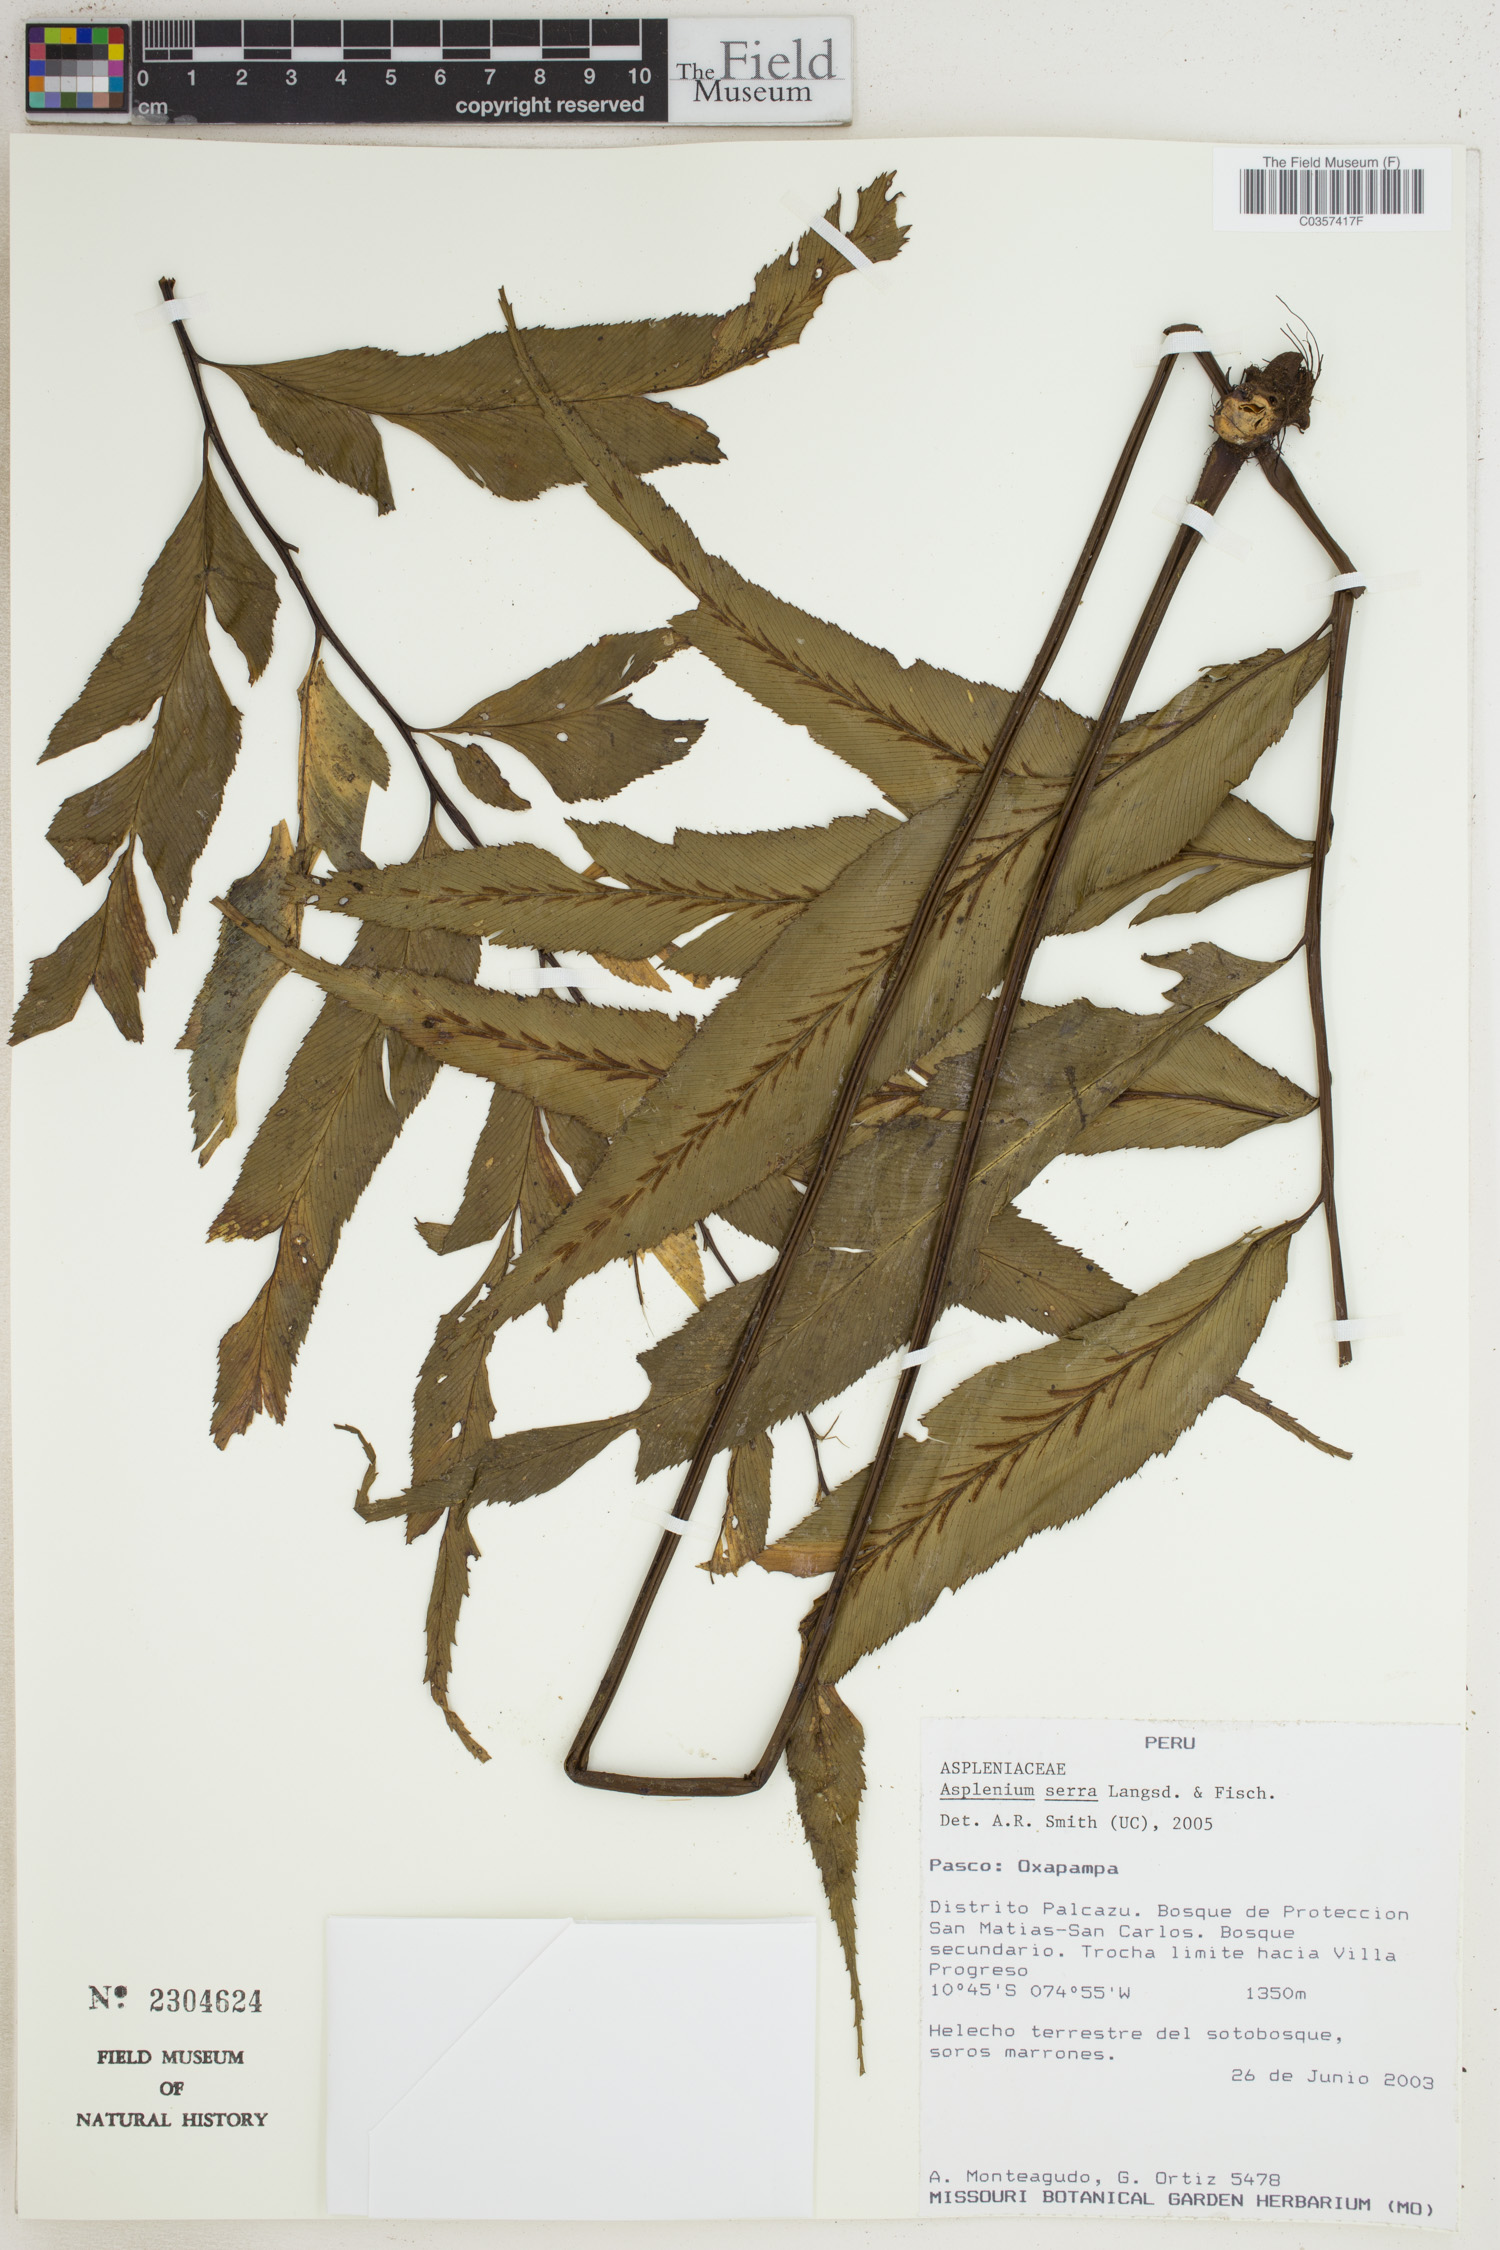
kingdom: Plantae
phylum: Tracheophyta
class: Polypodiopsida
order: Polypodiales
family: Aspleniaceae
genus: Asplenium
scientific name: Asplenium serra
